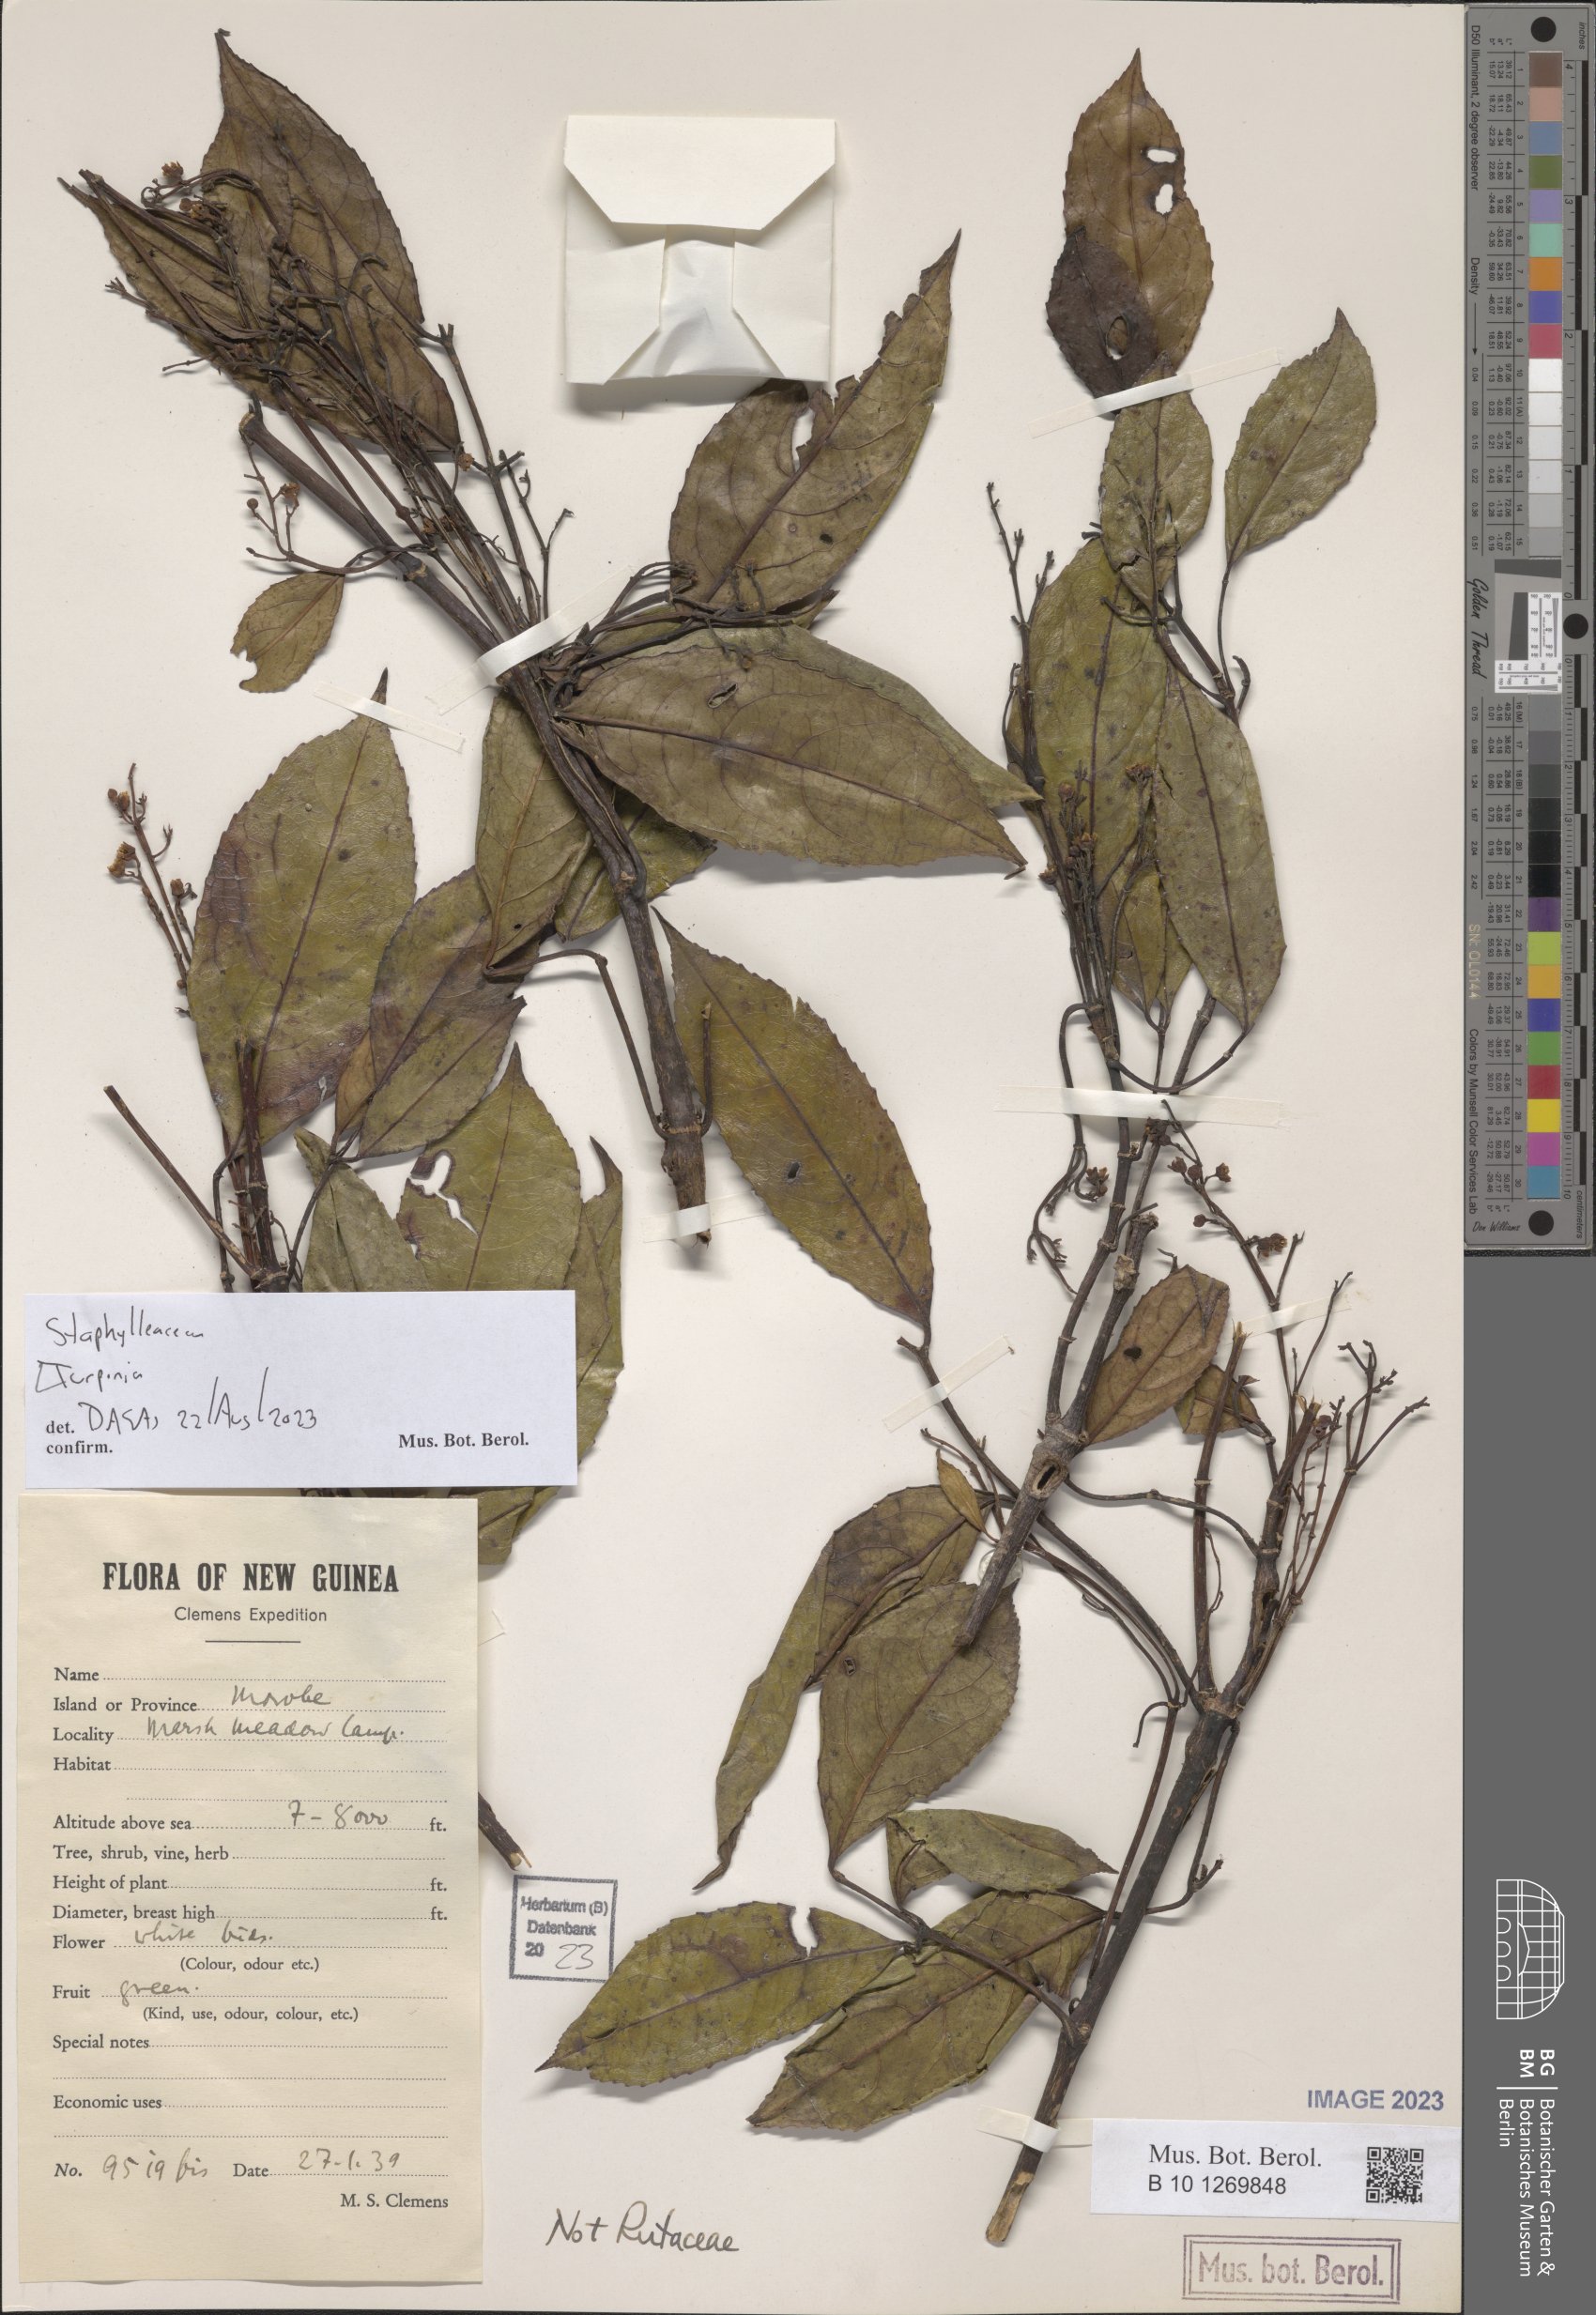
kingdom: Plantae
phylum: Tracheophyta
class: Magnoliopsida
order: Crossosomatales
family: Staphyleaceae
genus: Turpinia
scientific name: Turpinia
